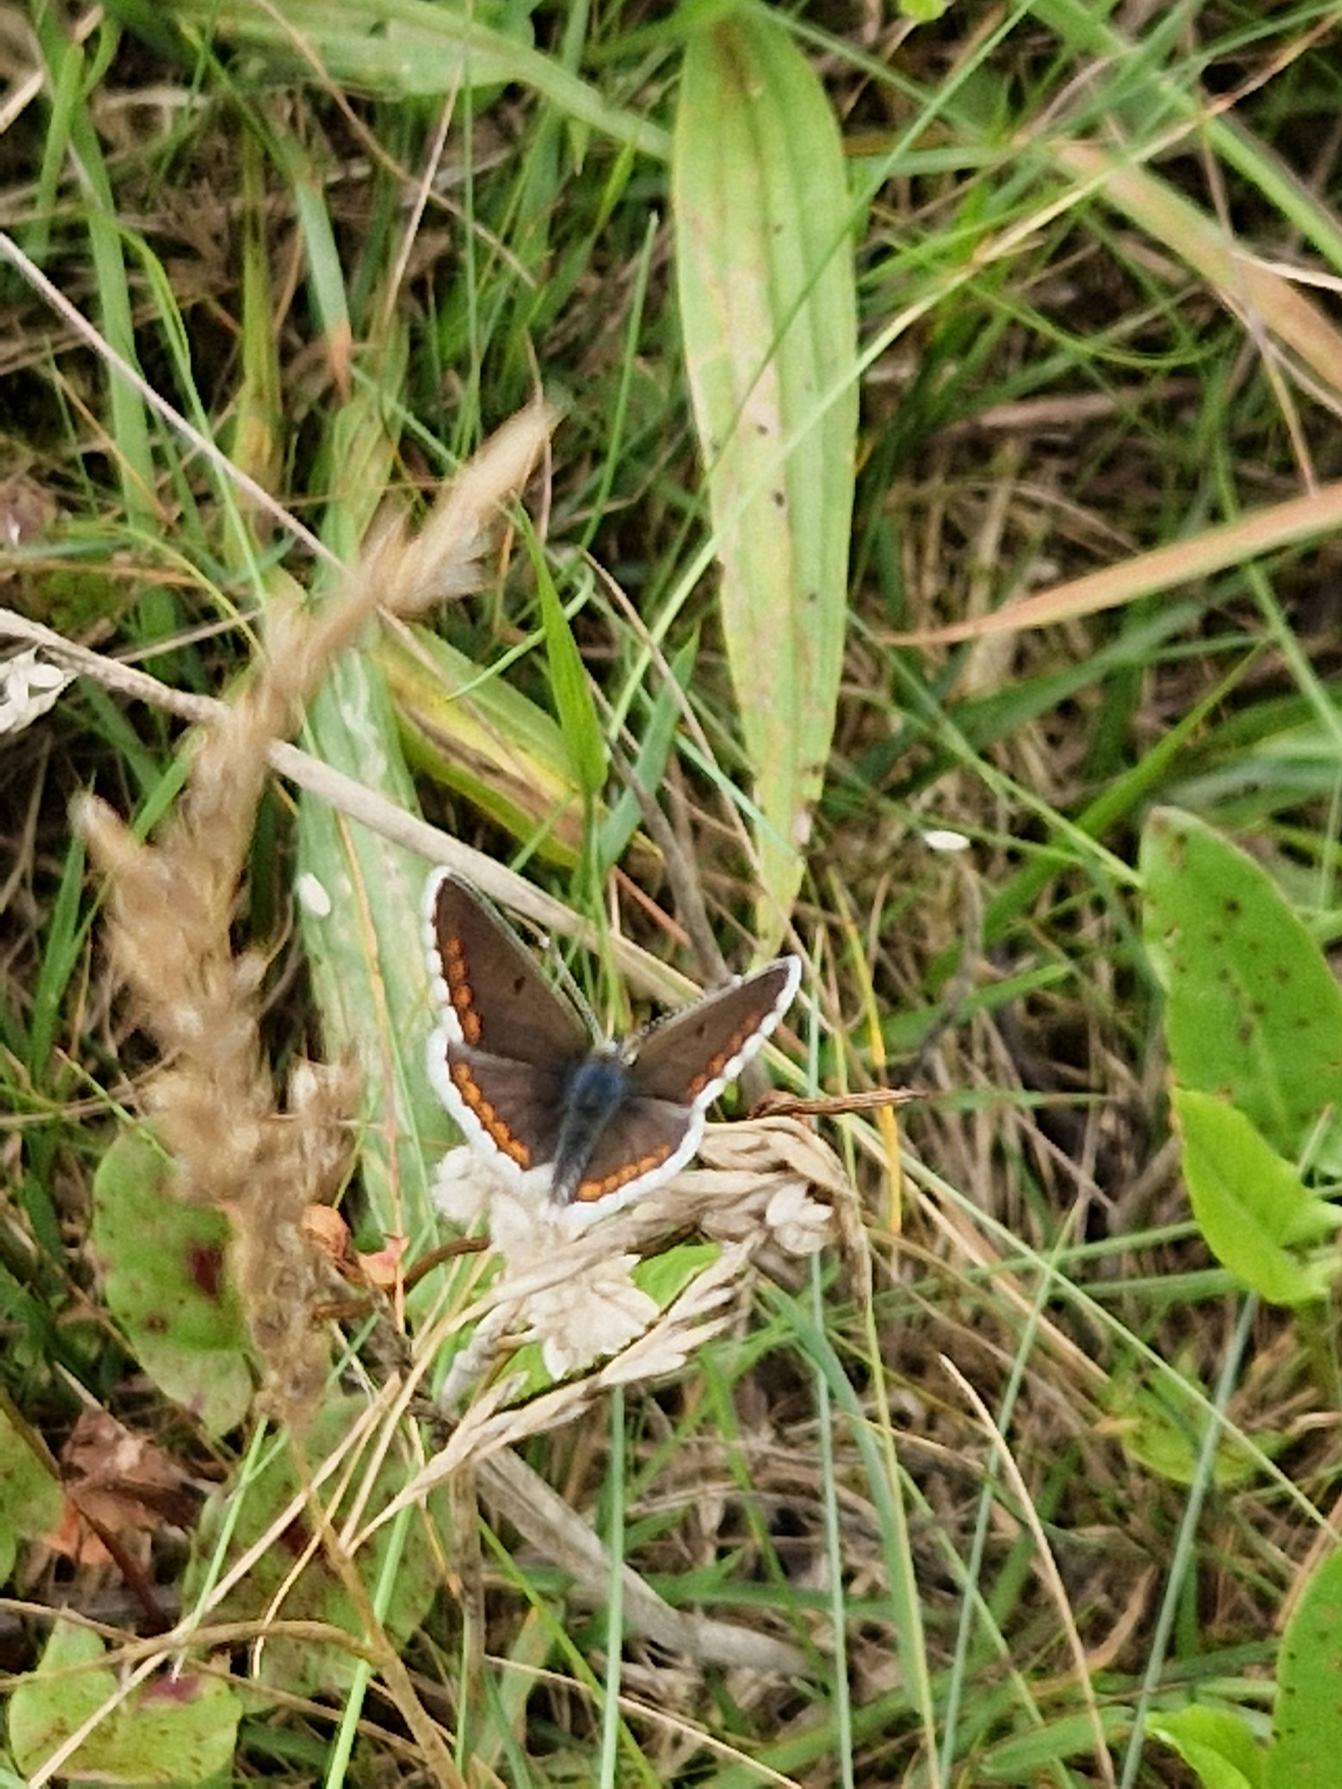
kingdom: Animalia
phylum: Arthropoda
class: Insecta
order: Lepidoptera
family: Lycaenidae
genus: Aricia
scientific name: Aricia agestis
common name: Rødplettet blåfugl
